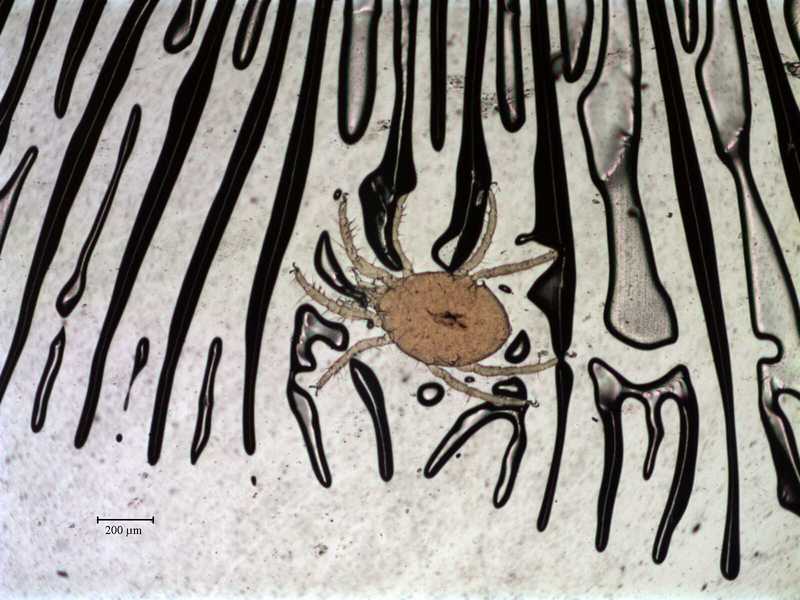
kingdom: Animalia
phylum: Arthropoda
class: Arachnida
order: Trombidiformes
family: Halacaridae
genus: Thalassarachna
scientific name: Thalassarachna affinis
